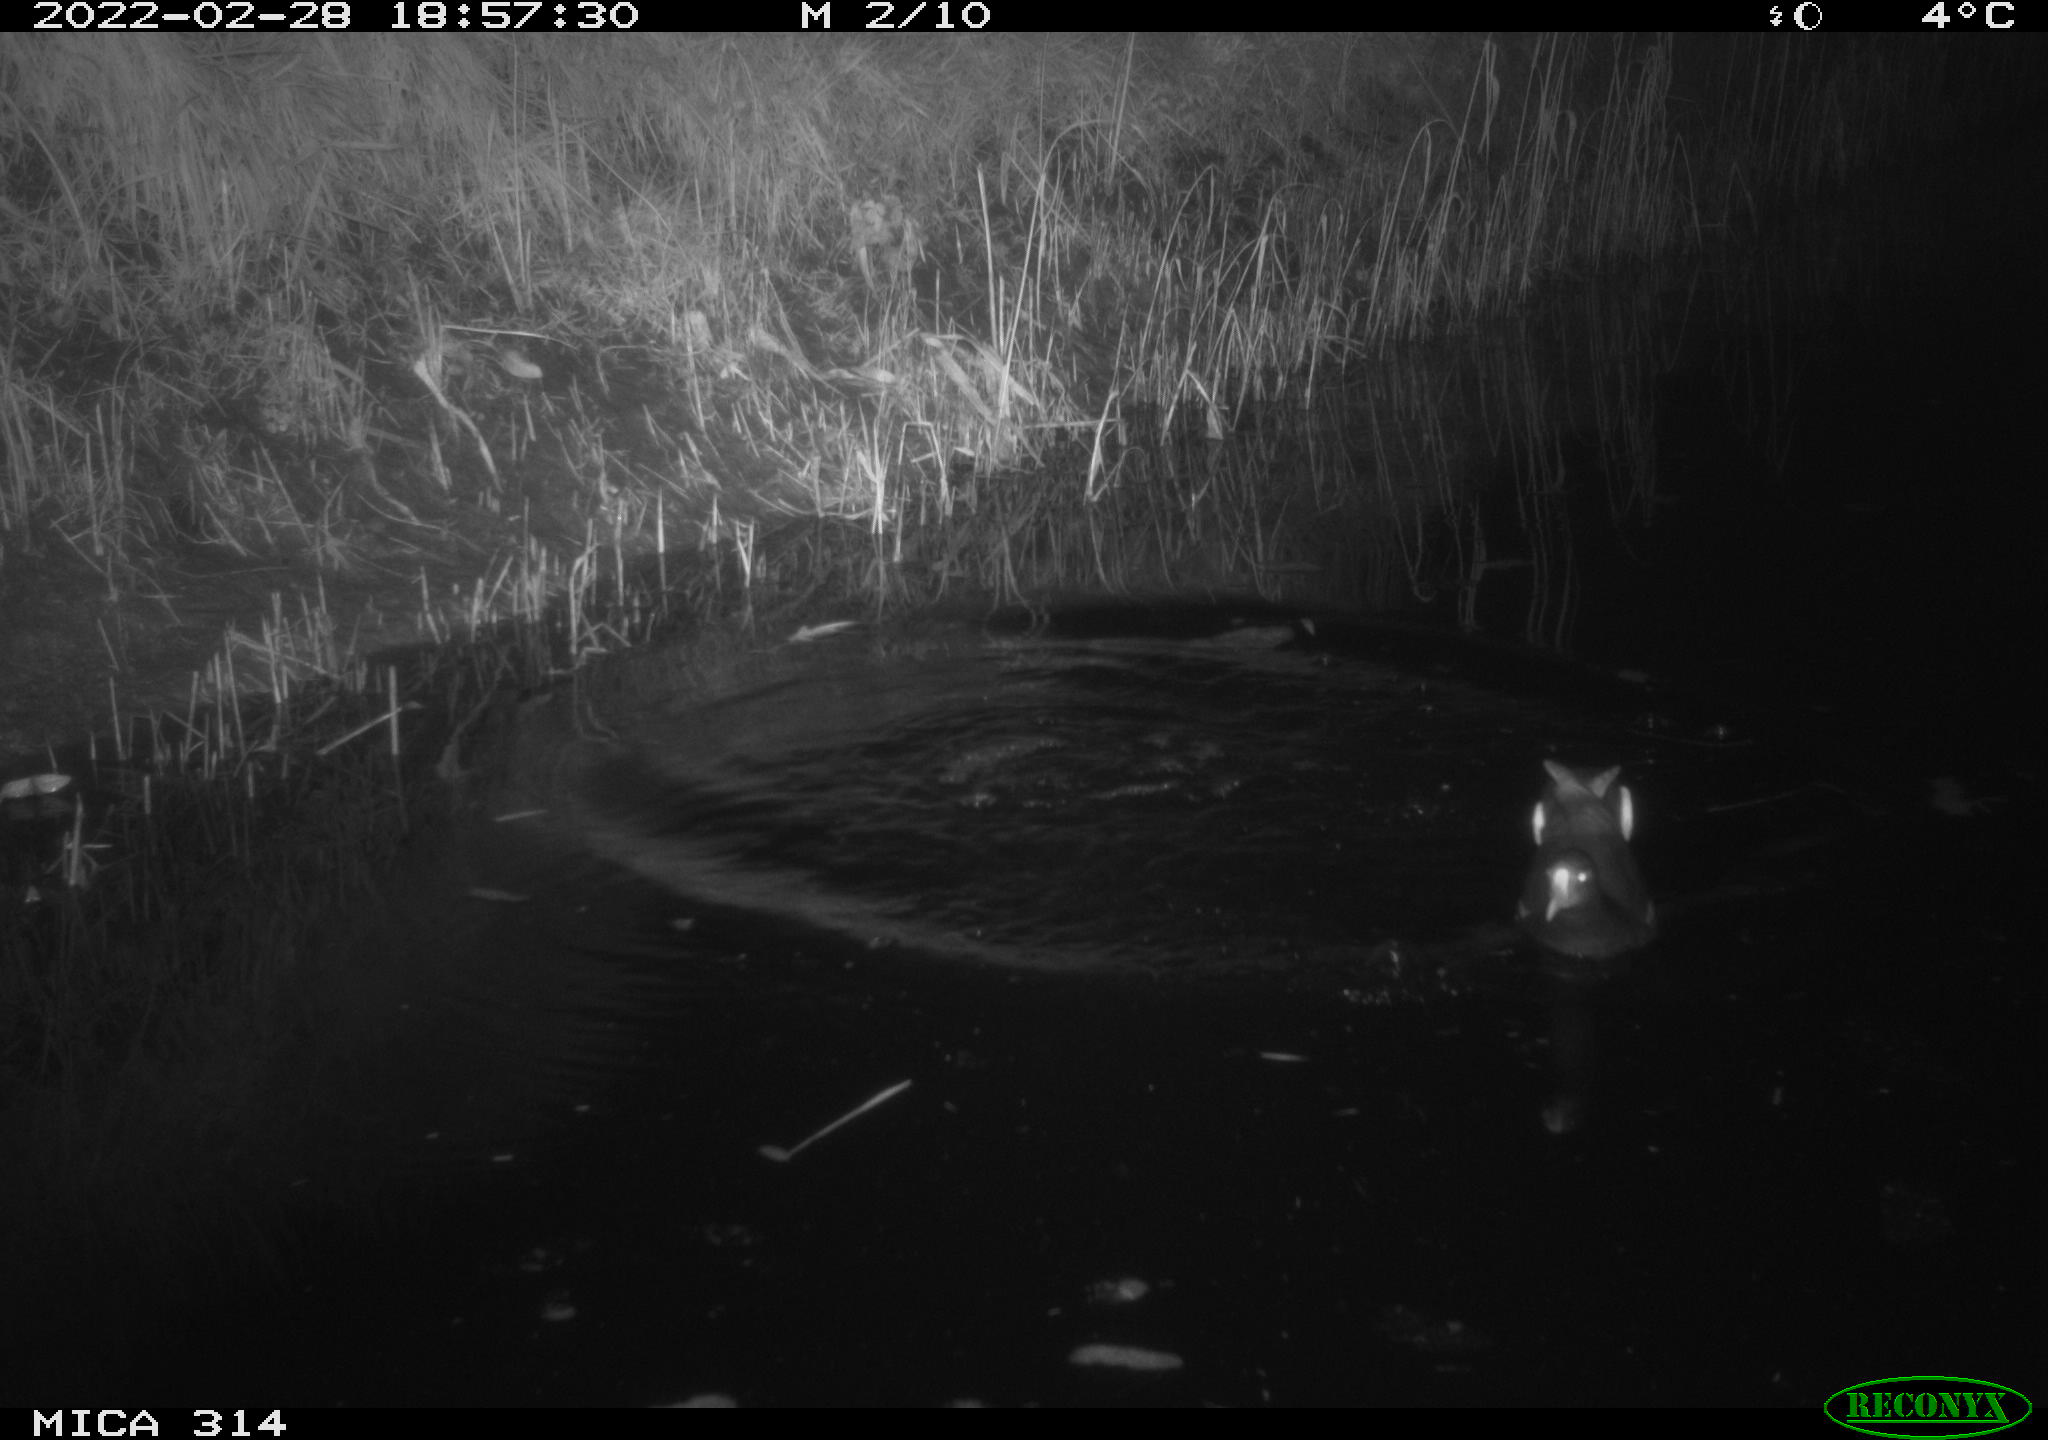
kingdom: Animalia
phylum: Chordata
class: Aves
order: Gruiformes
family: Rallidae
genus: Gallinula
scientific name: Gallinula chloropus
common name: Common moorhen
